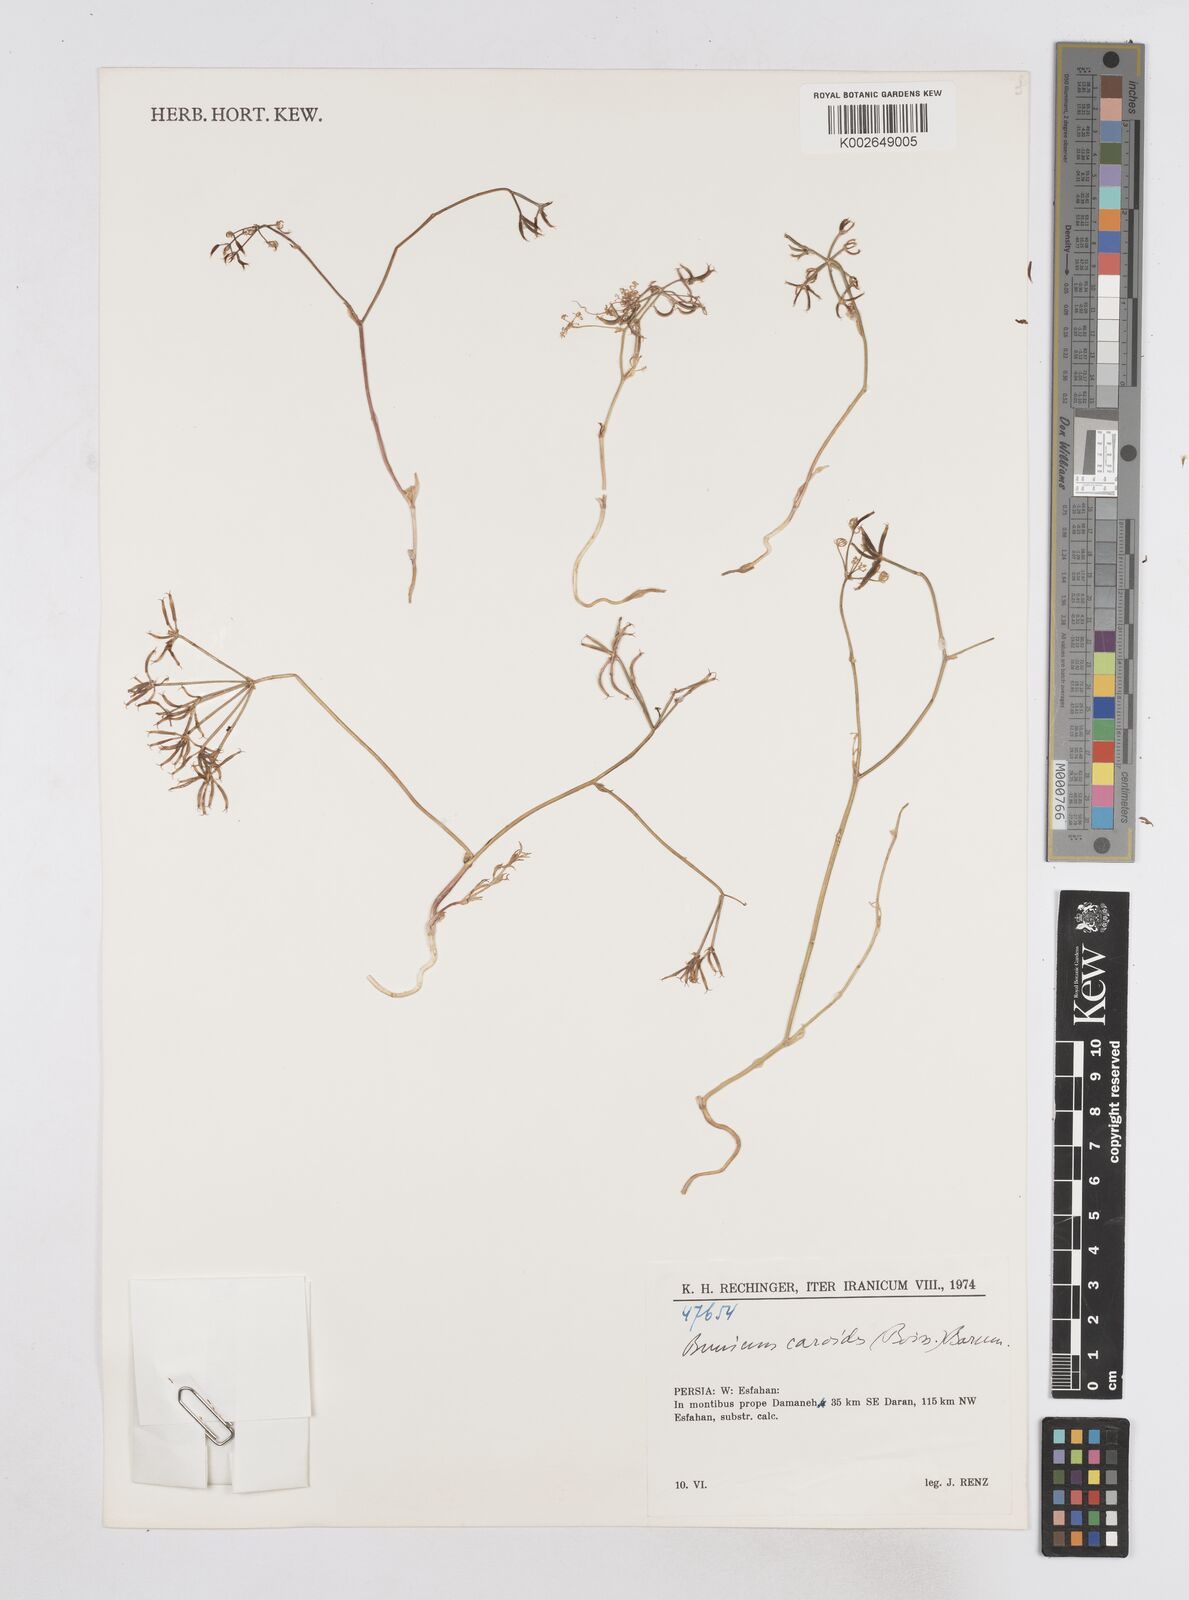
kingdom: Plantae
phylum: Tracheophyta
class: Magnoliopsida
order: Apiales
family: Apiaceae
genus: Elwendia
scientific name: Elwendia caroides
